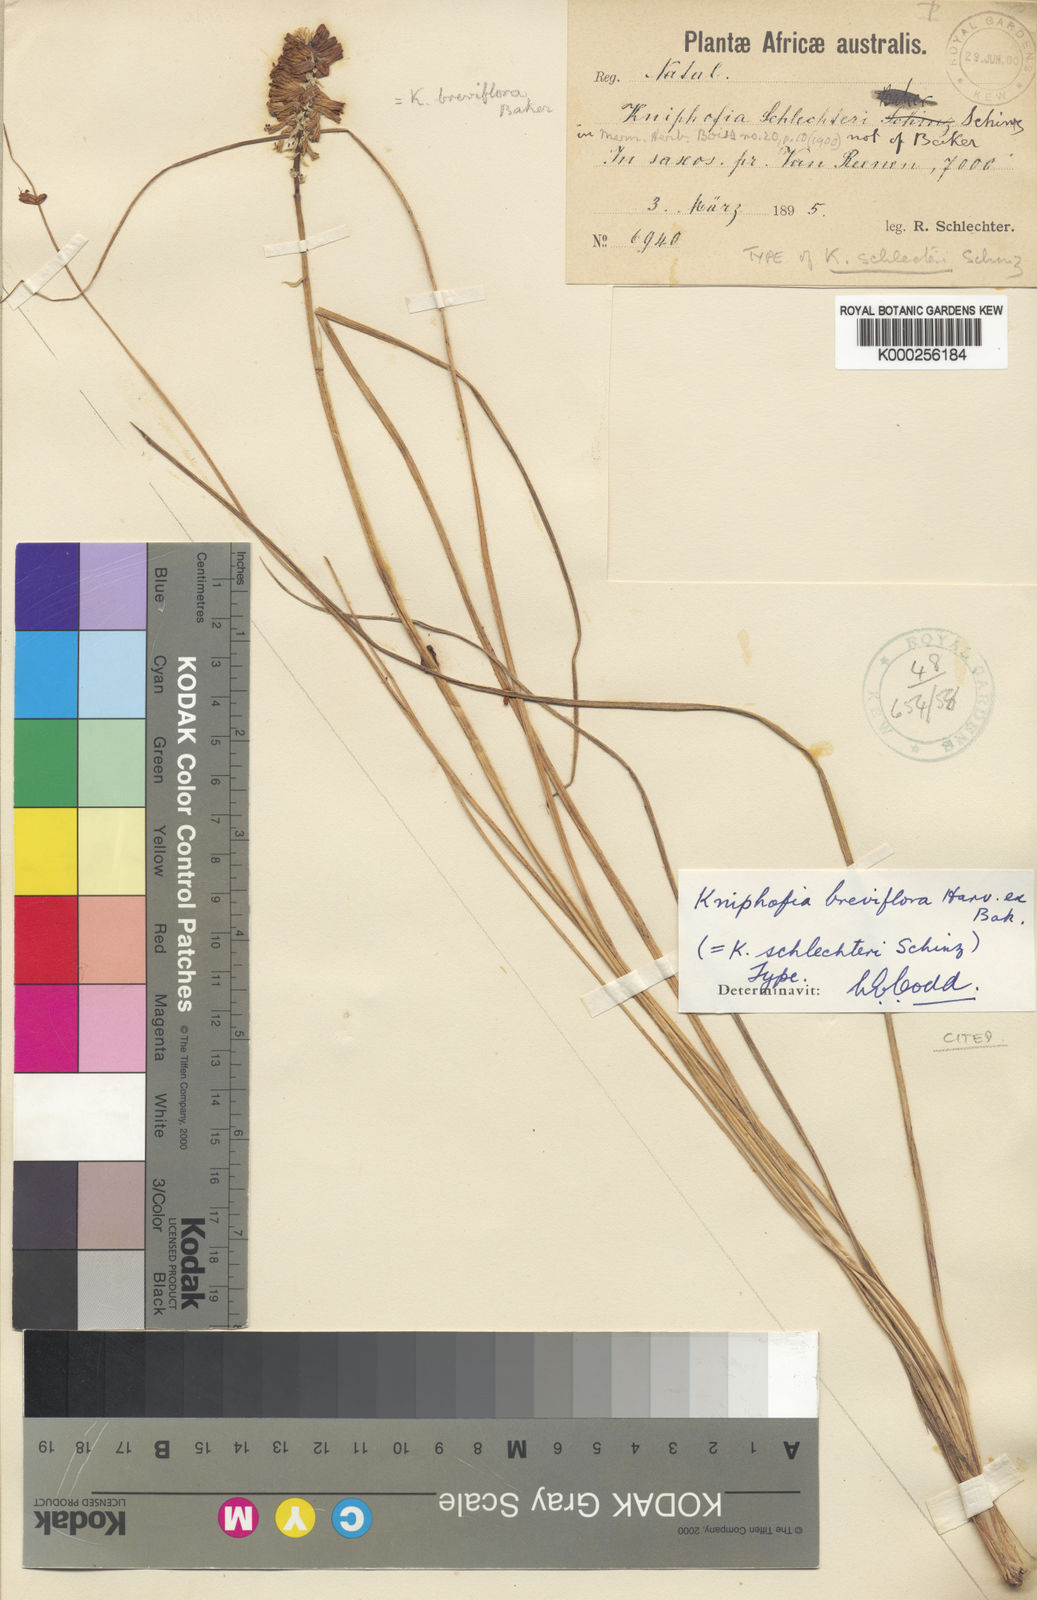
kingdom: Plantae
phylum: Tracheophyta
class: Liliopsida
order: Asparagales
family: Asphodelaceae
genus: Kniphofia
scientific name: Kniphofia breviflora
